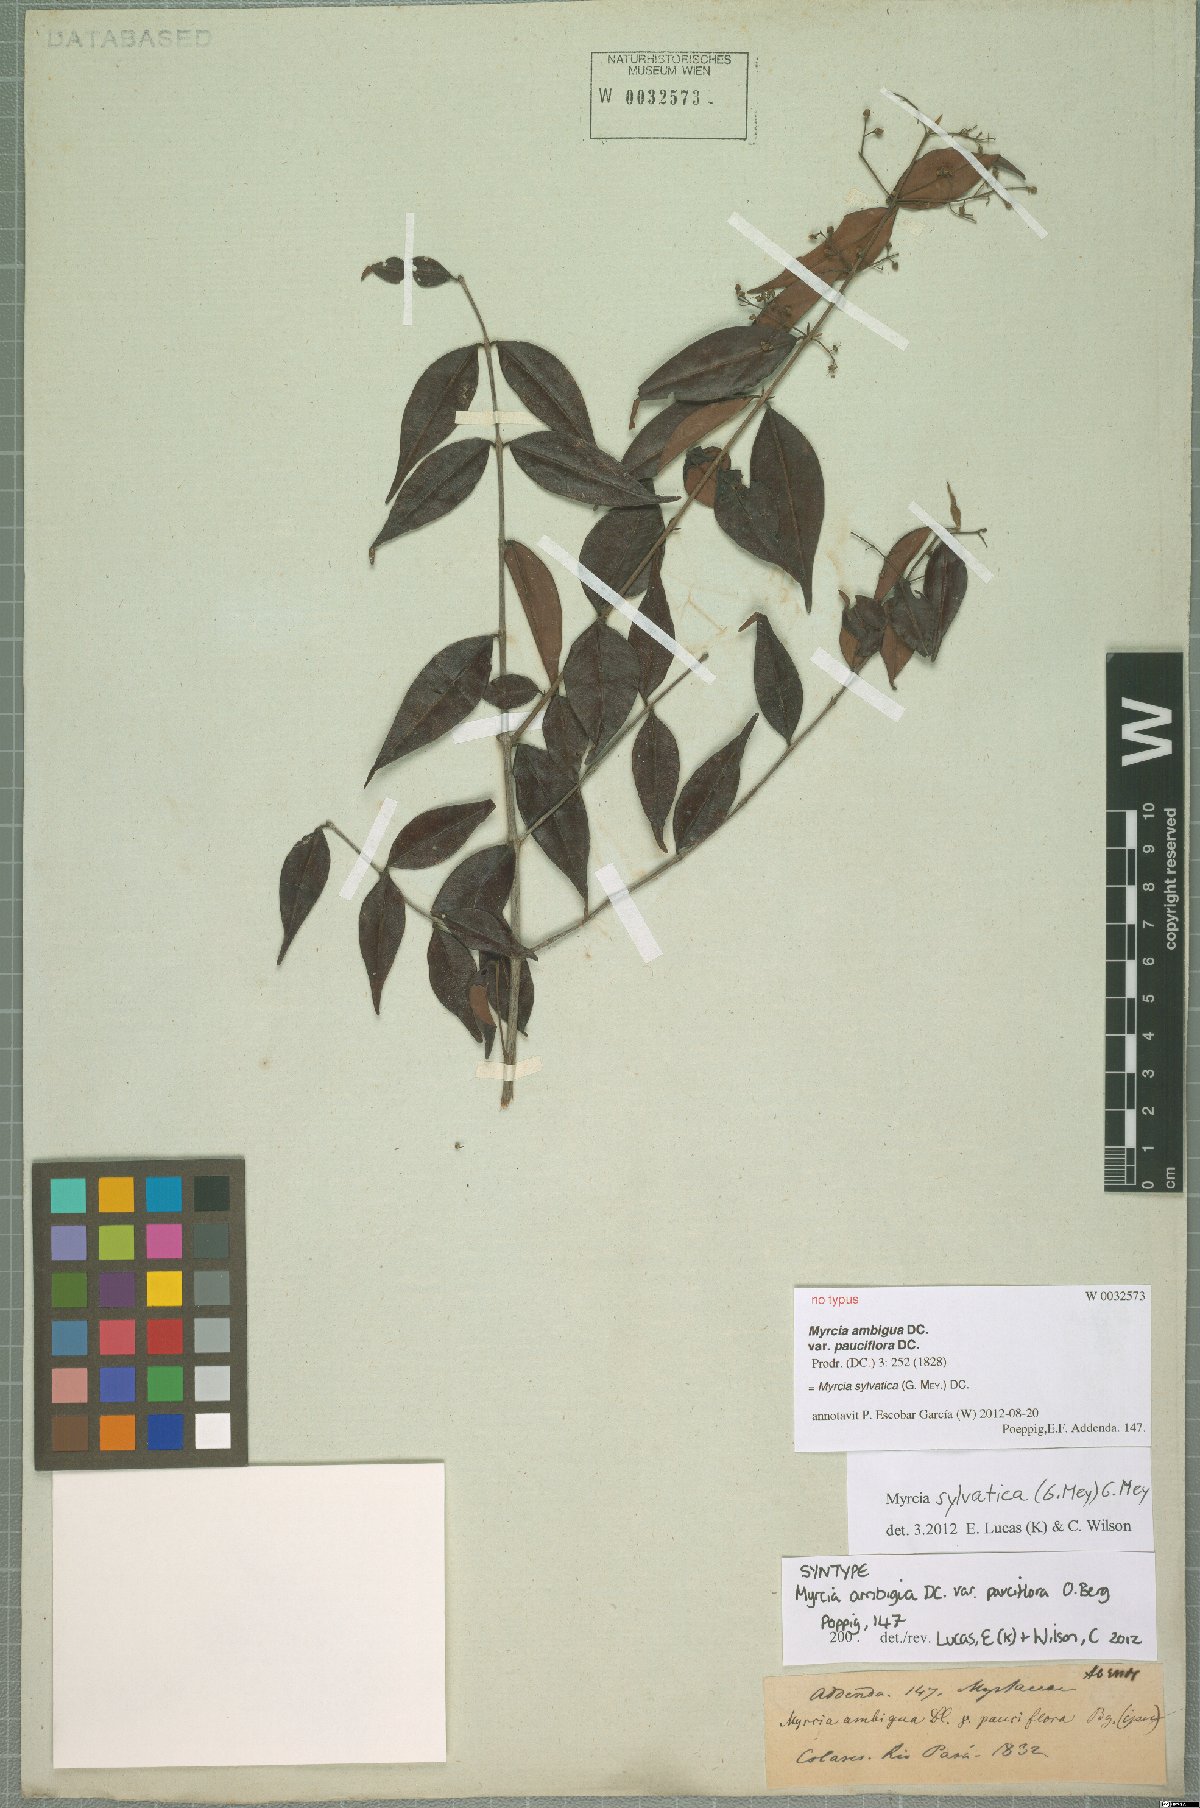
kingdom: Plantae
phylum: Tracheophyta
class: Magnoliopsida
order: Myrtales
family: Myrtaceae
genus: Myrcia
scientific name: Myrcia sylvatica
